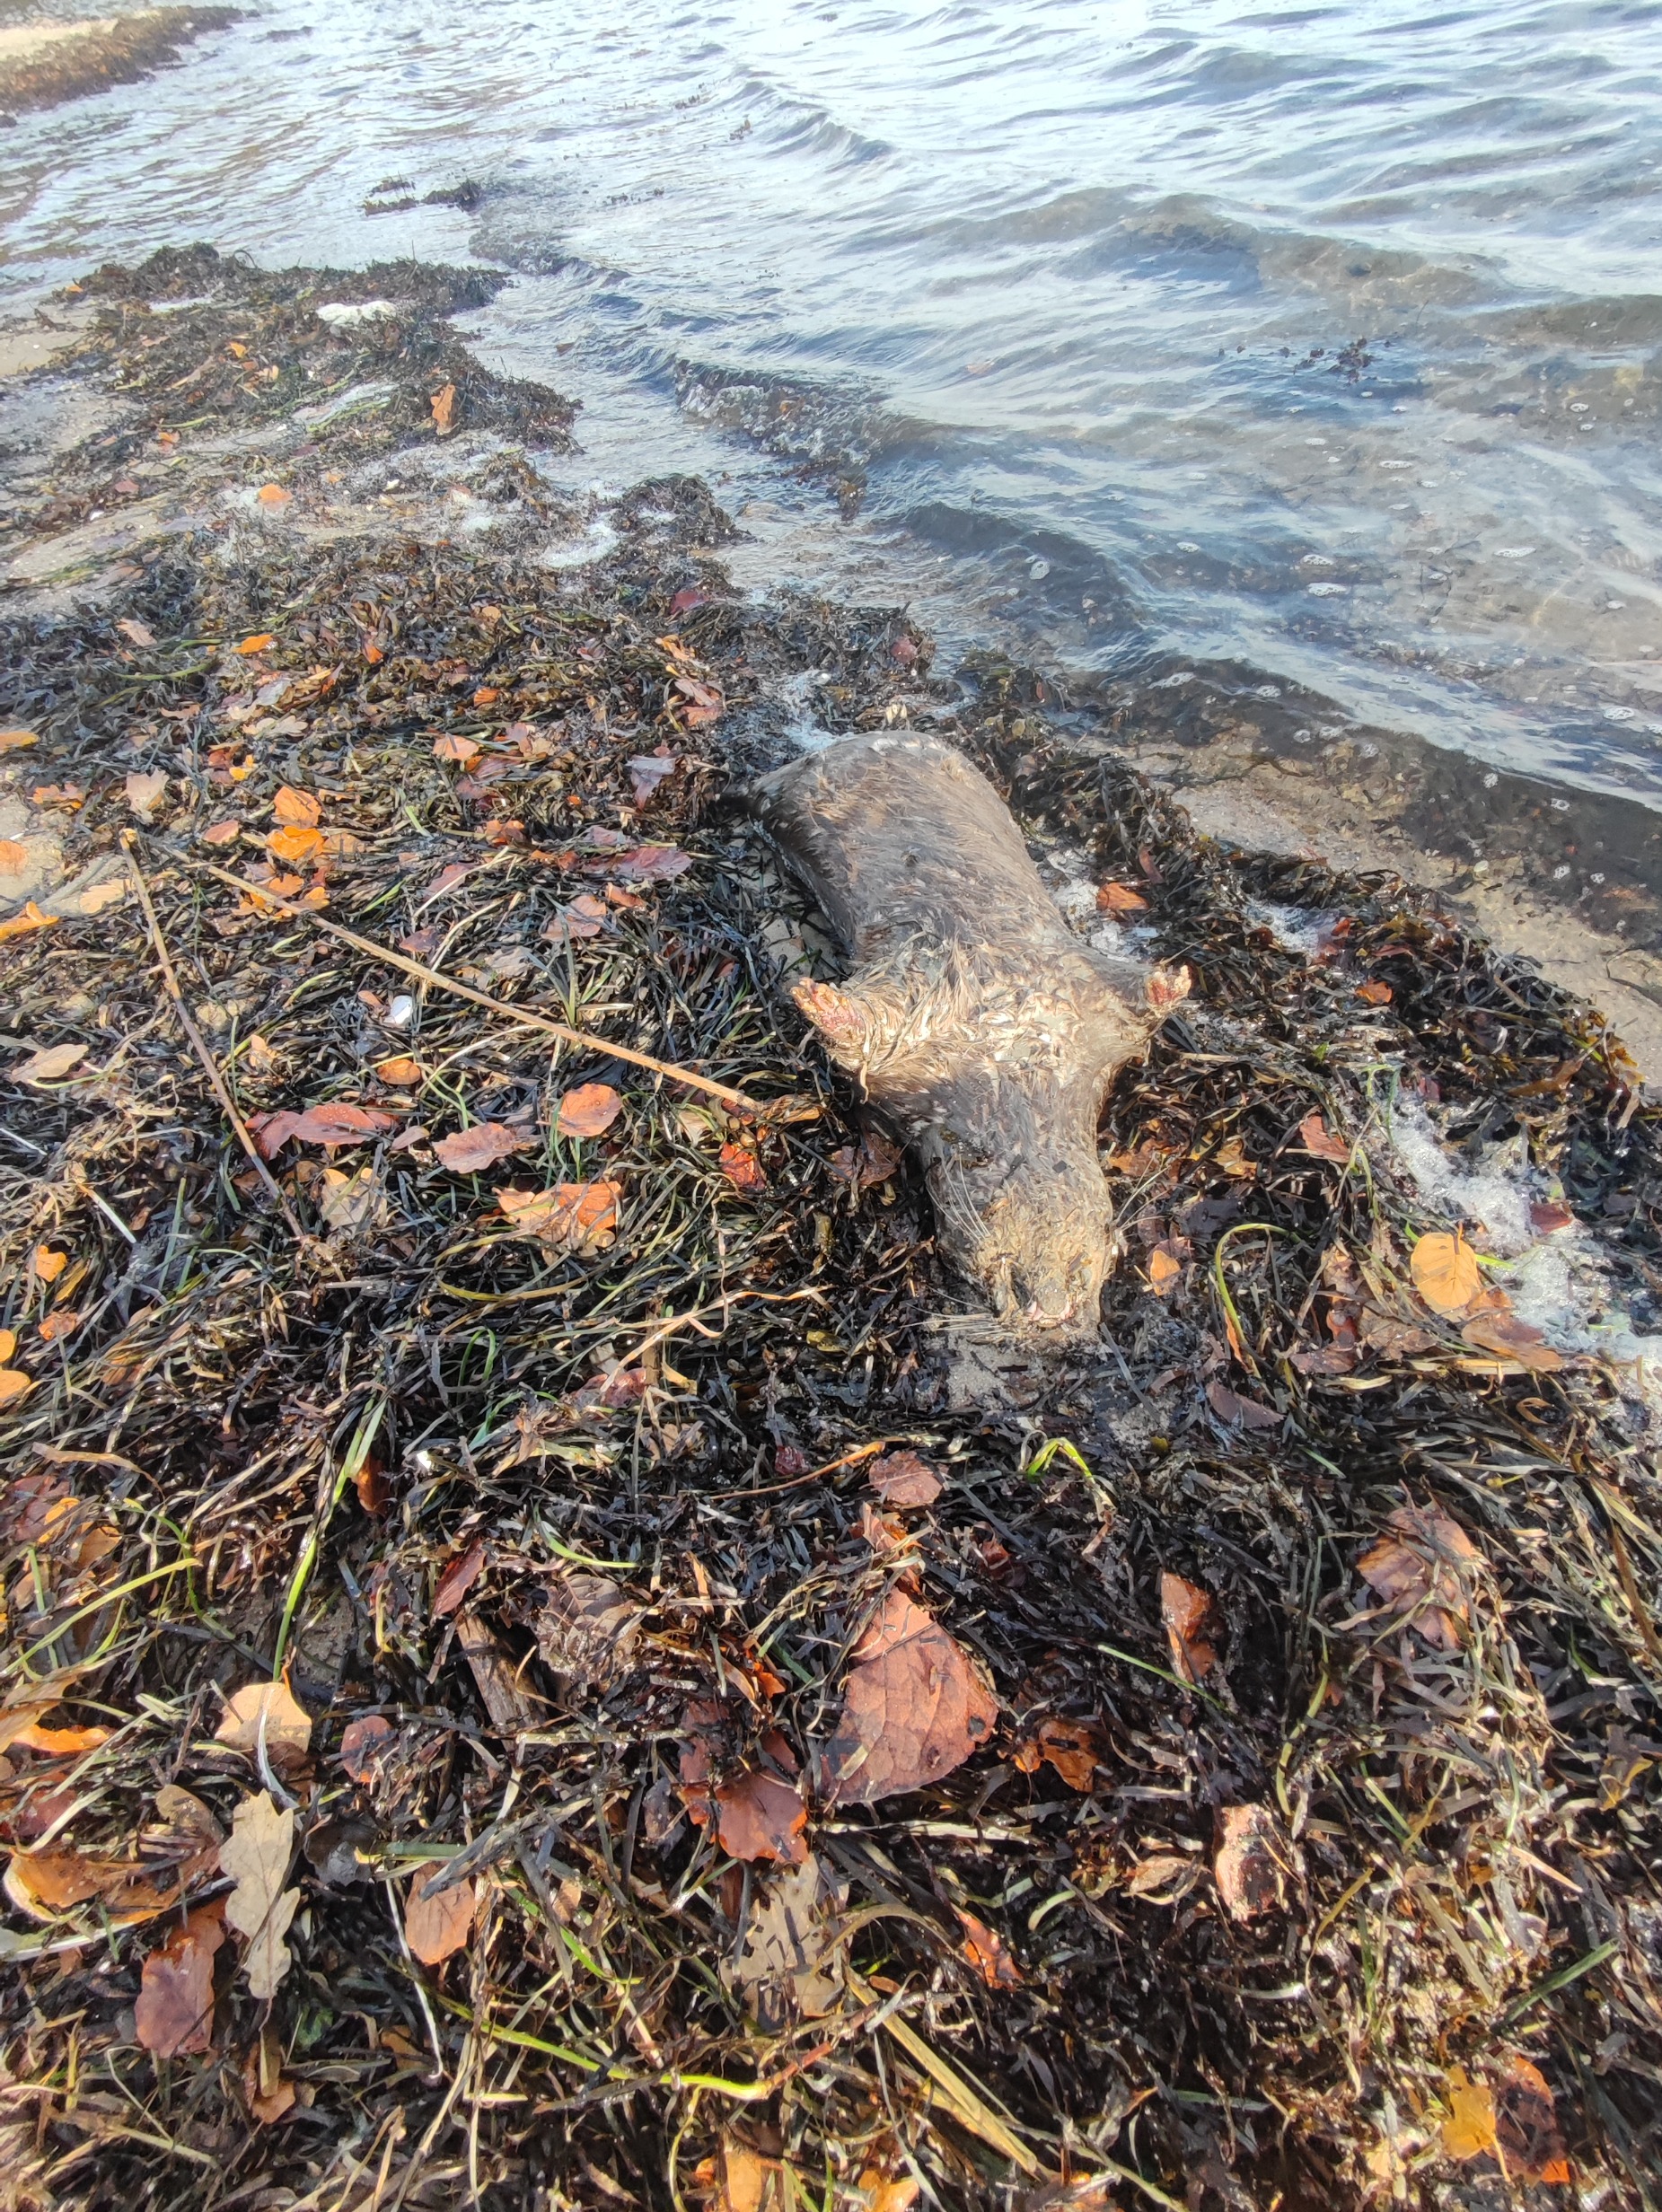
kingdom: Animalia
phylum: Chordata
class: Mammalia
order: Carnivora
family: Mustelidae
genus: Lutra
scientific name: Lutra lutra
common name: Odder
